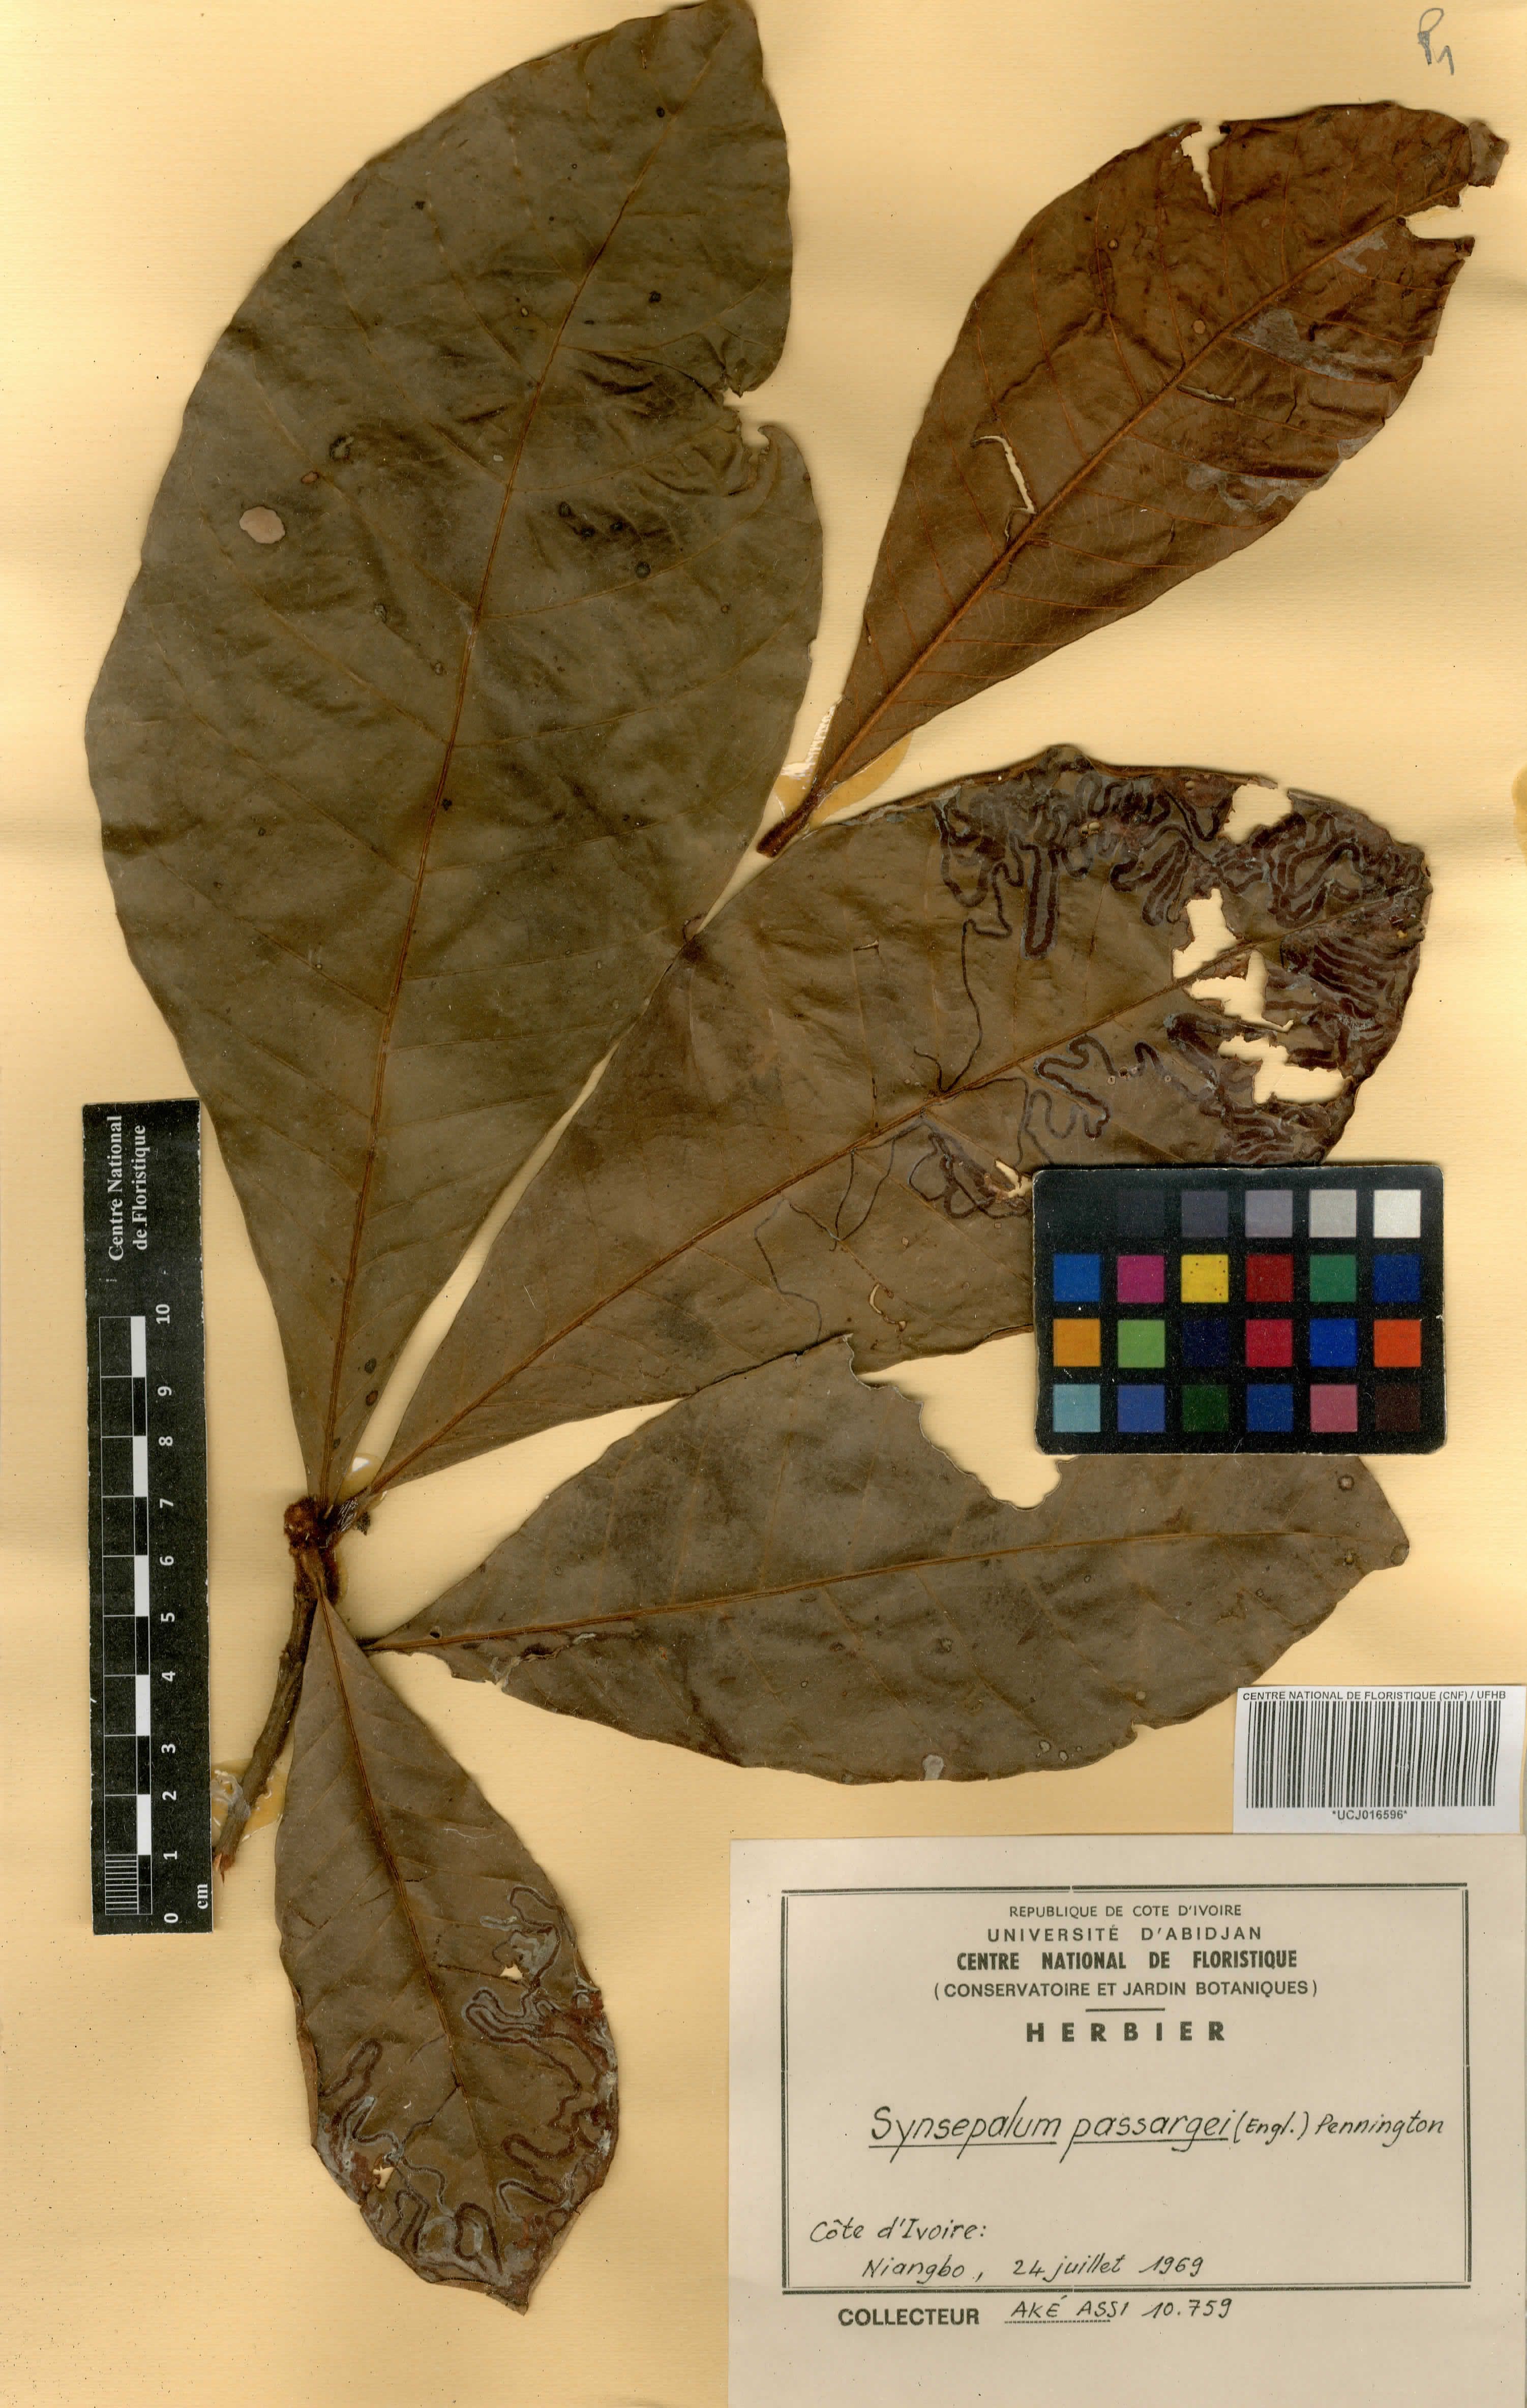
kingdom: Plantae
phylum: Tracheophyta
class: Magnoliopsida
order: Ericales
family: Sapotaceae
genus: Synsepalum
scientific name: Synsepalum passargei
